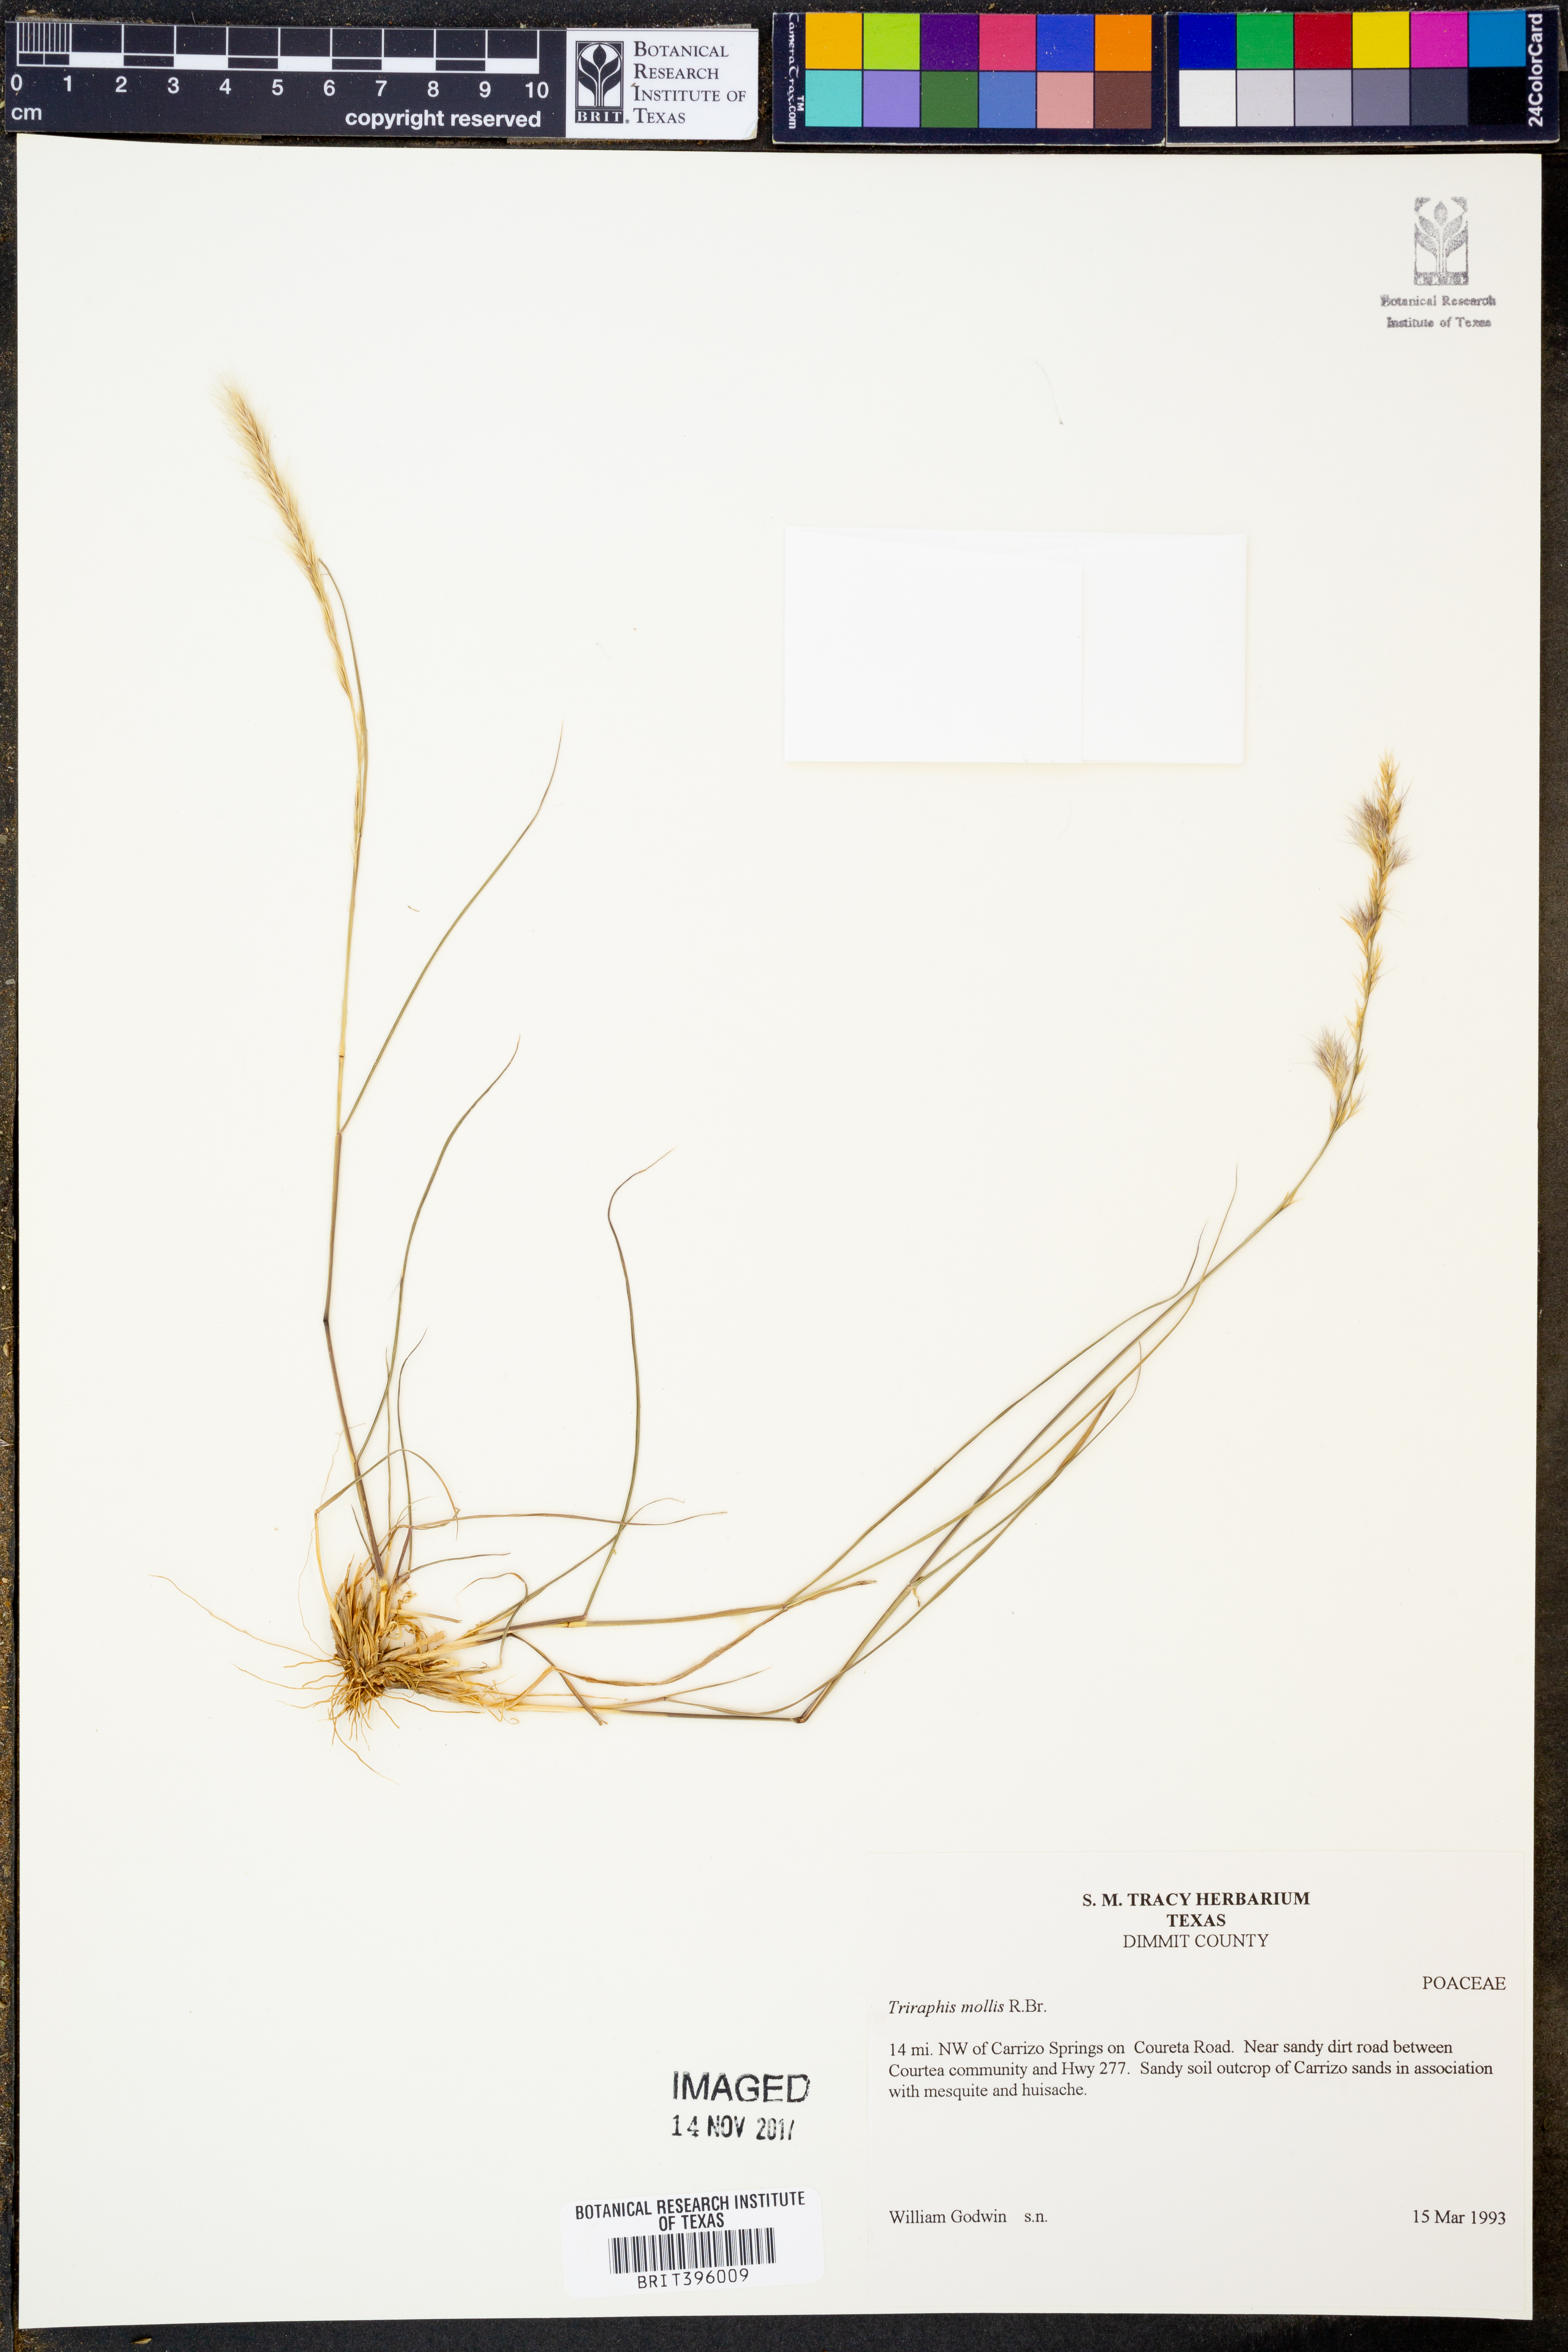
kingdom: Plantae
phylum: Tracheophyta
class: Liliopsida
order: Poales
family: Poaceae
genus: Triraphis
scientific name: Triraphis mollis
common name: Purple needlegrass
